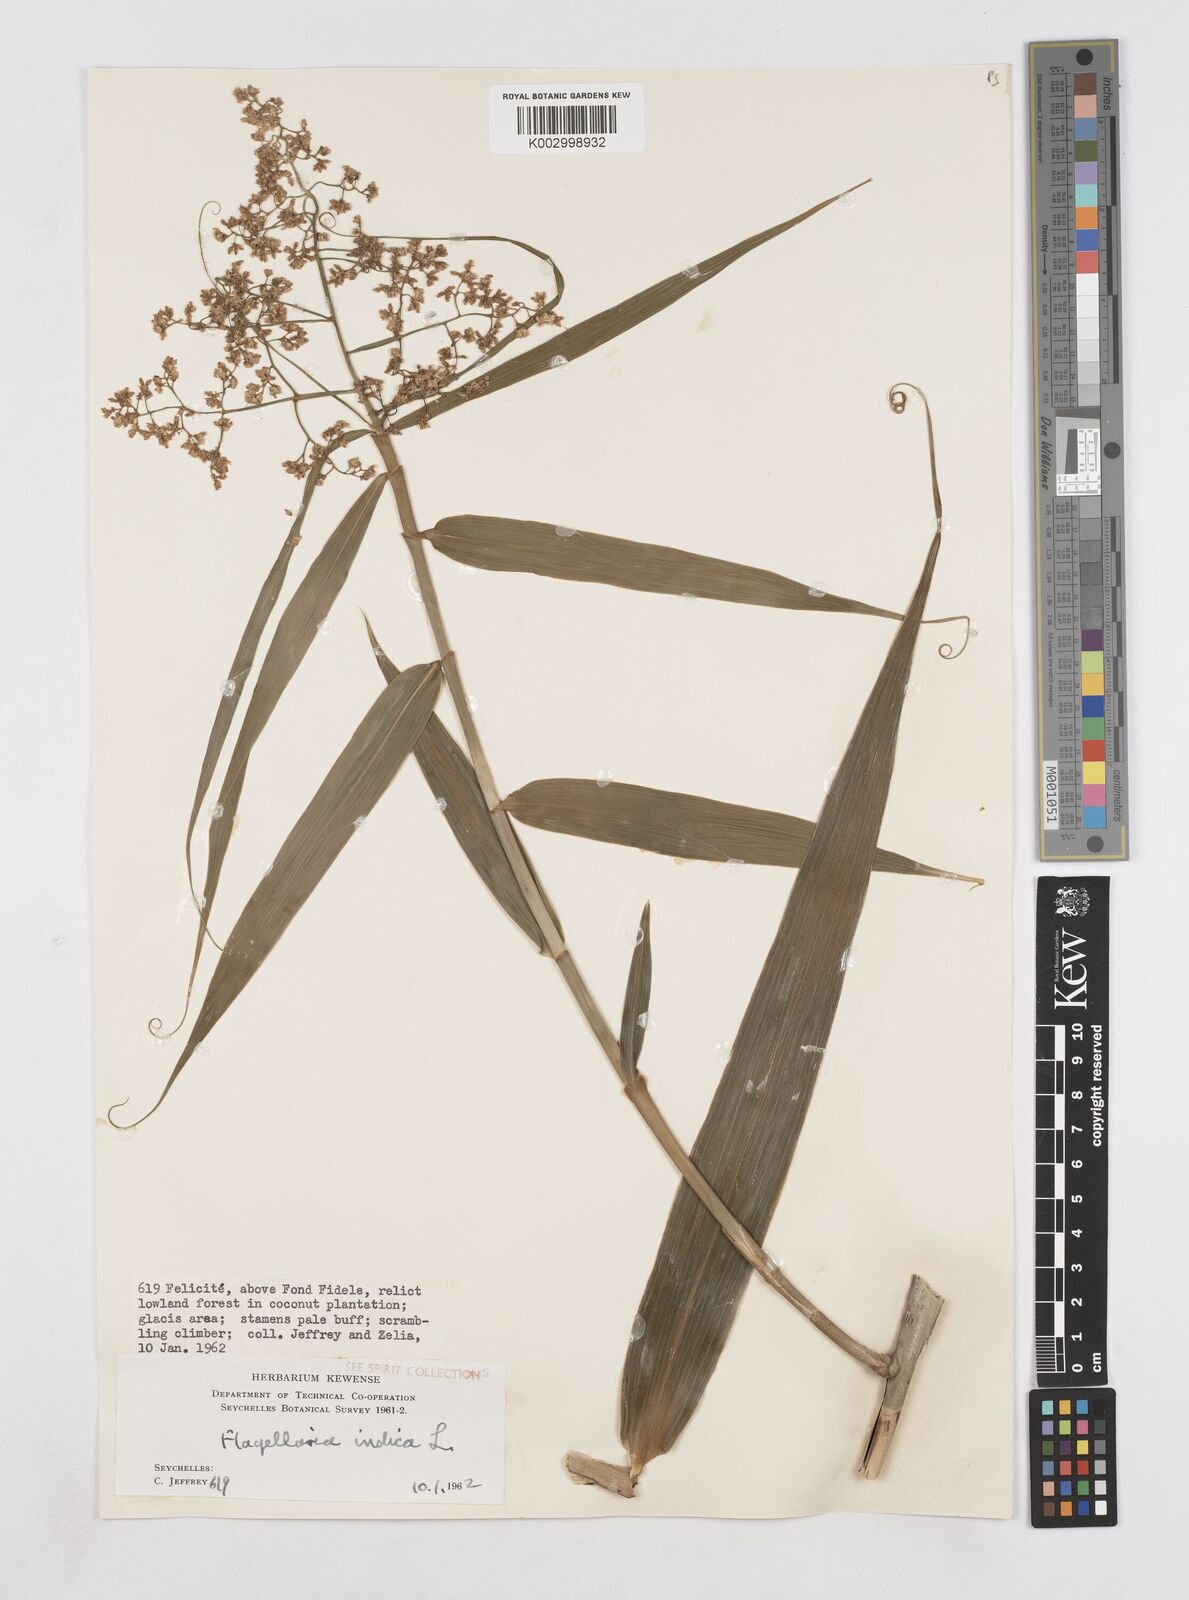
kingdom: Plantae
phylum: Tracheophyta
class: Liliopsida
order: Poales
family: Flagellariaceae
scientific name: Flagellariaceae
